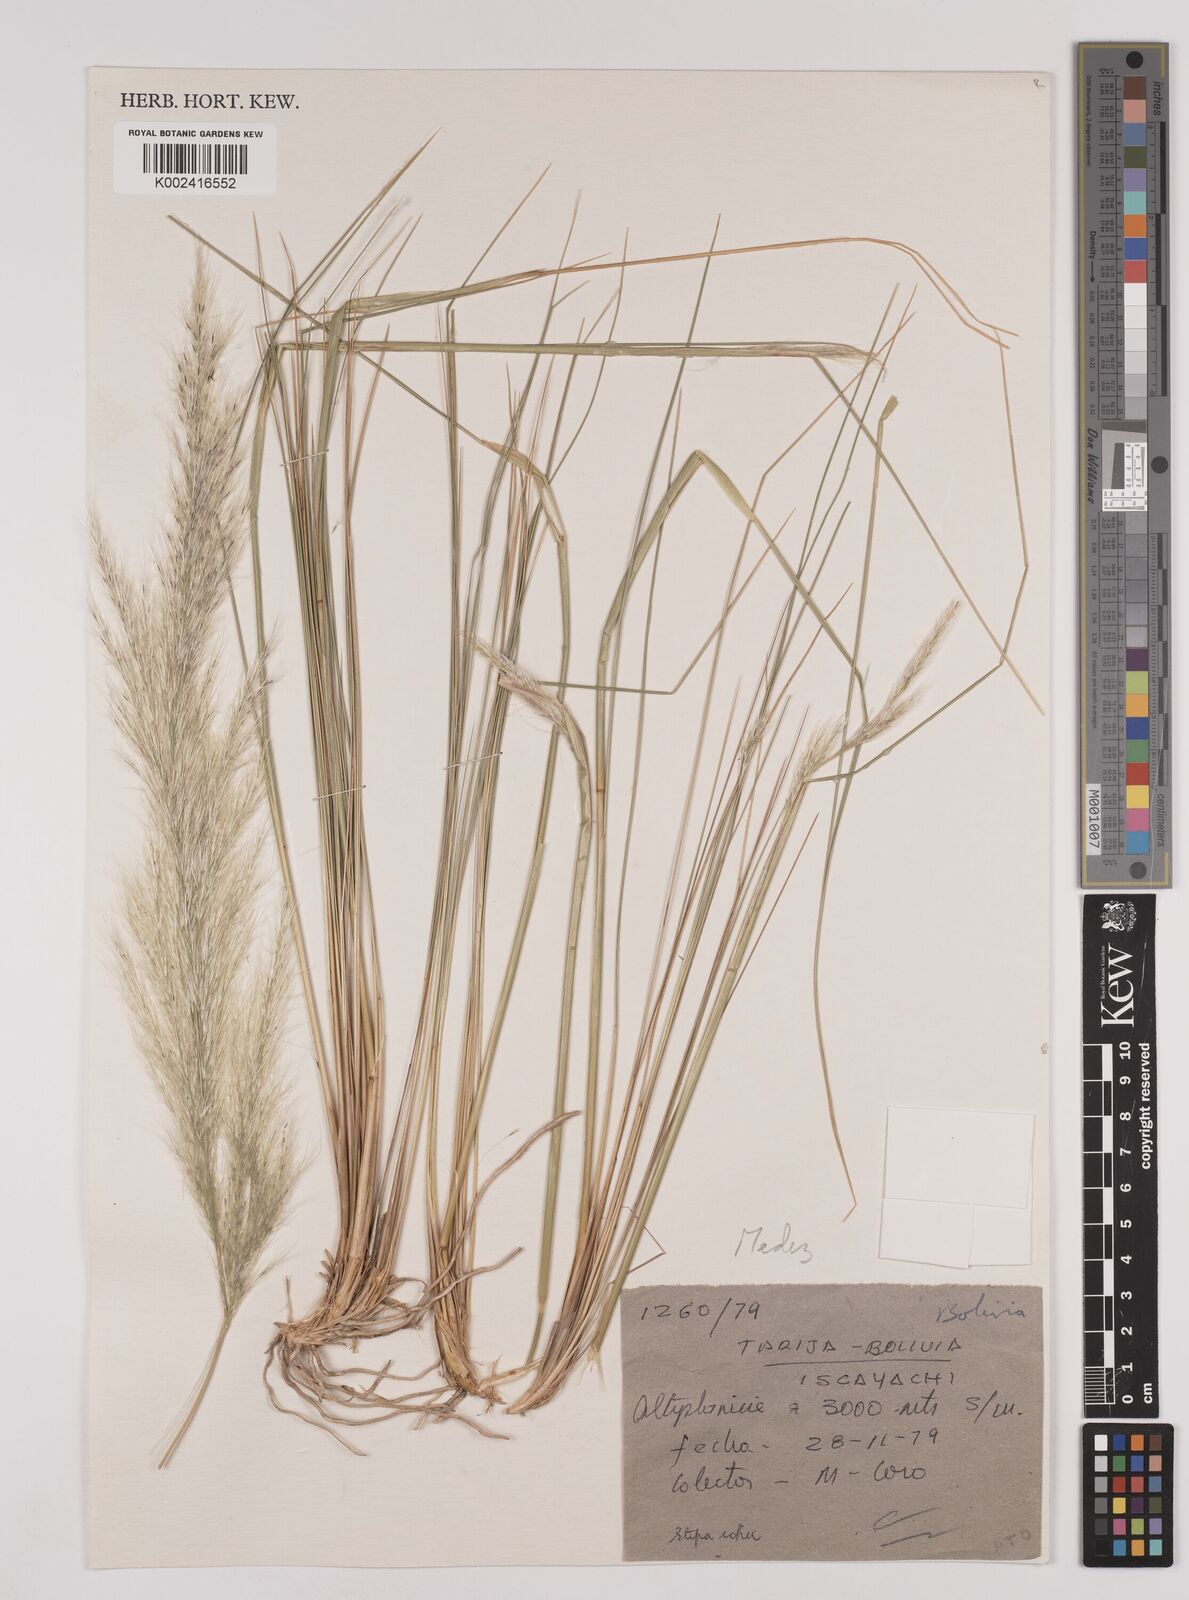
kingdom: Plantae
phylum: Tracheophyta
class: Liliopsida
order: Poales
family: Poaceae
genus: Jarava
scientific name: Jarava ichu
